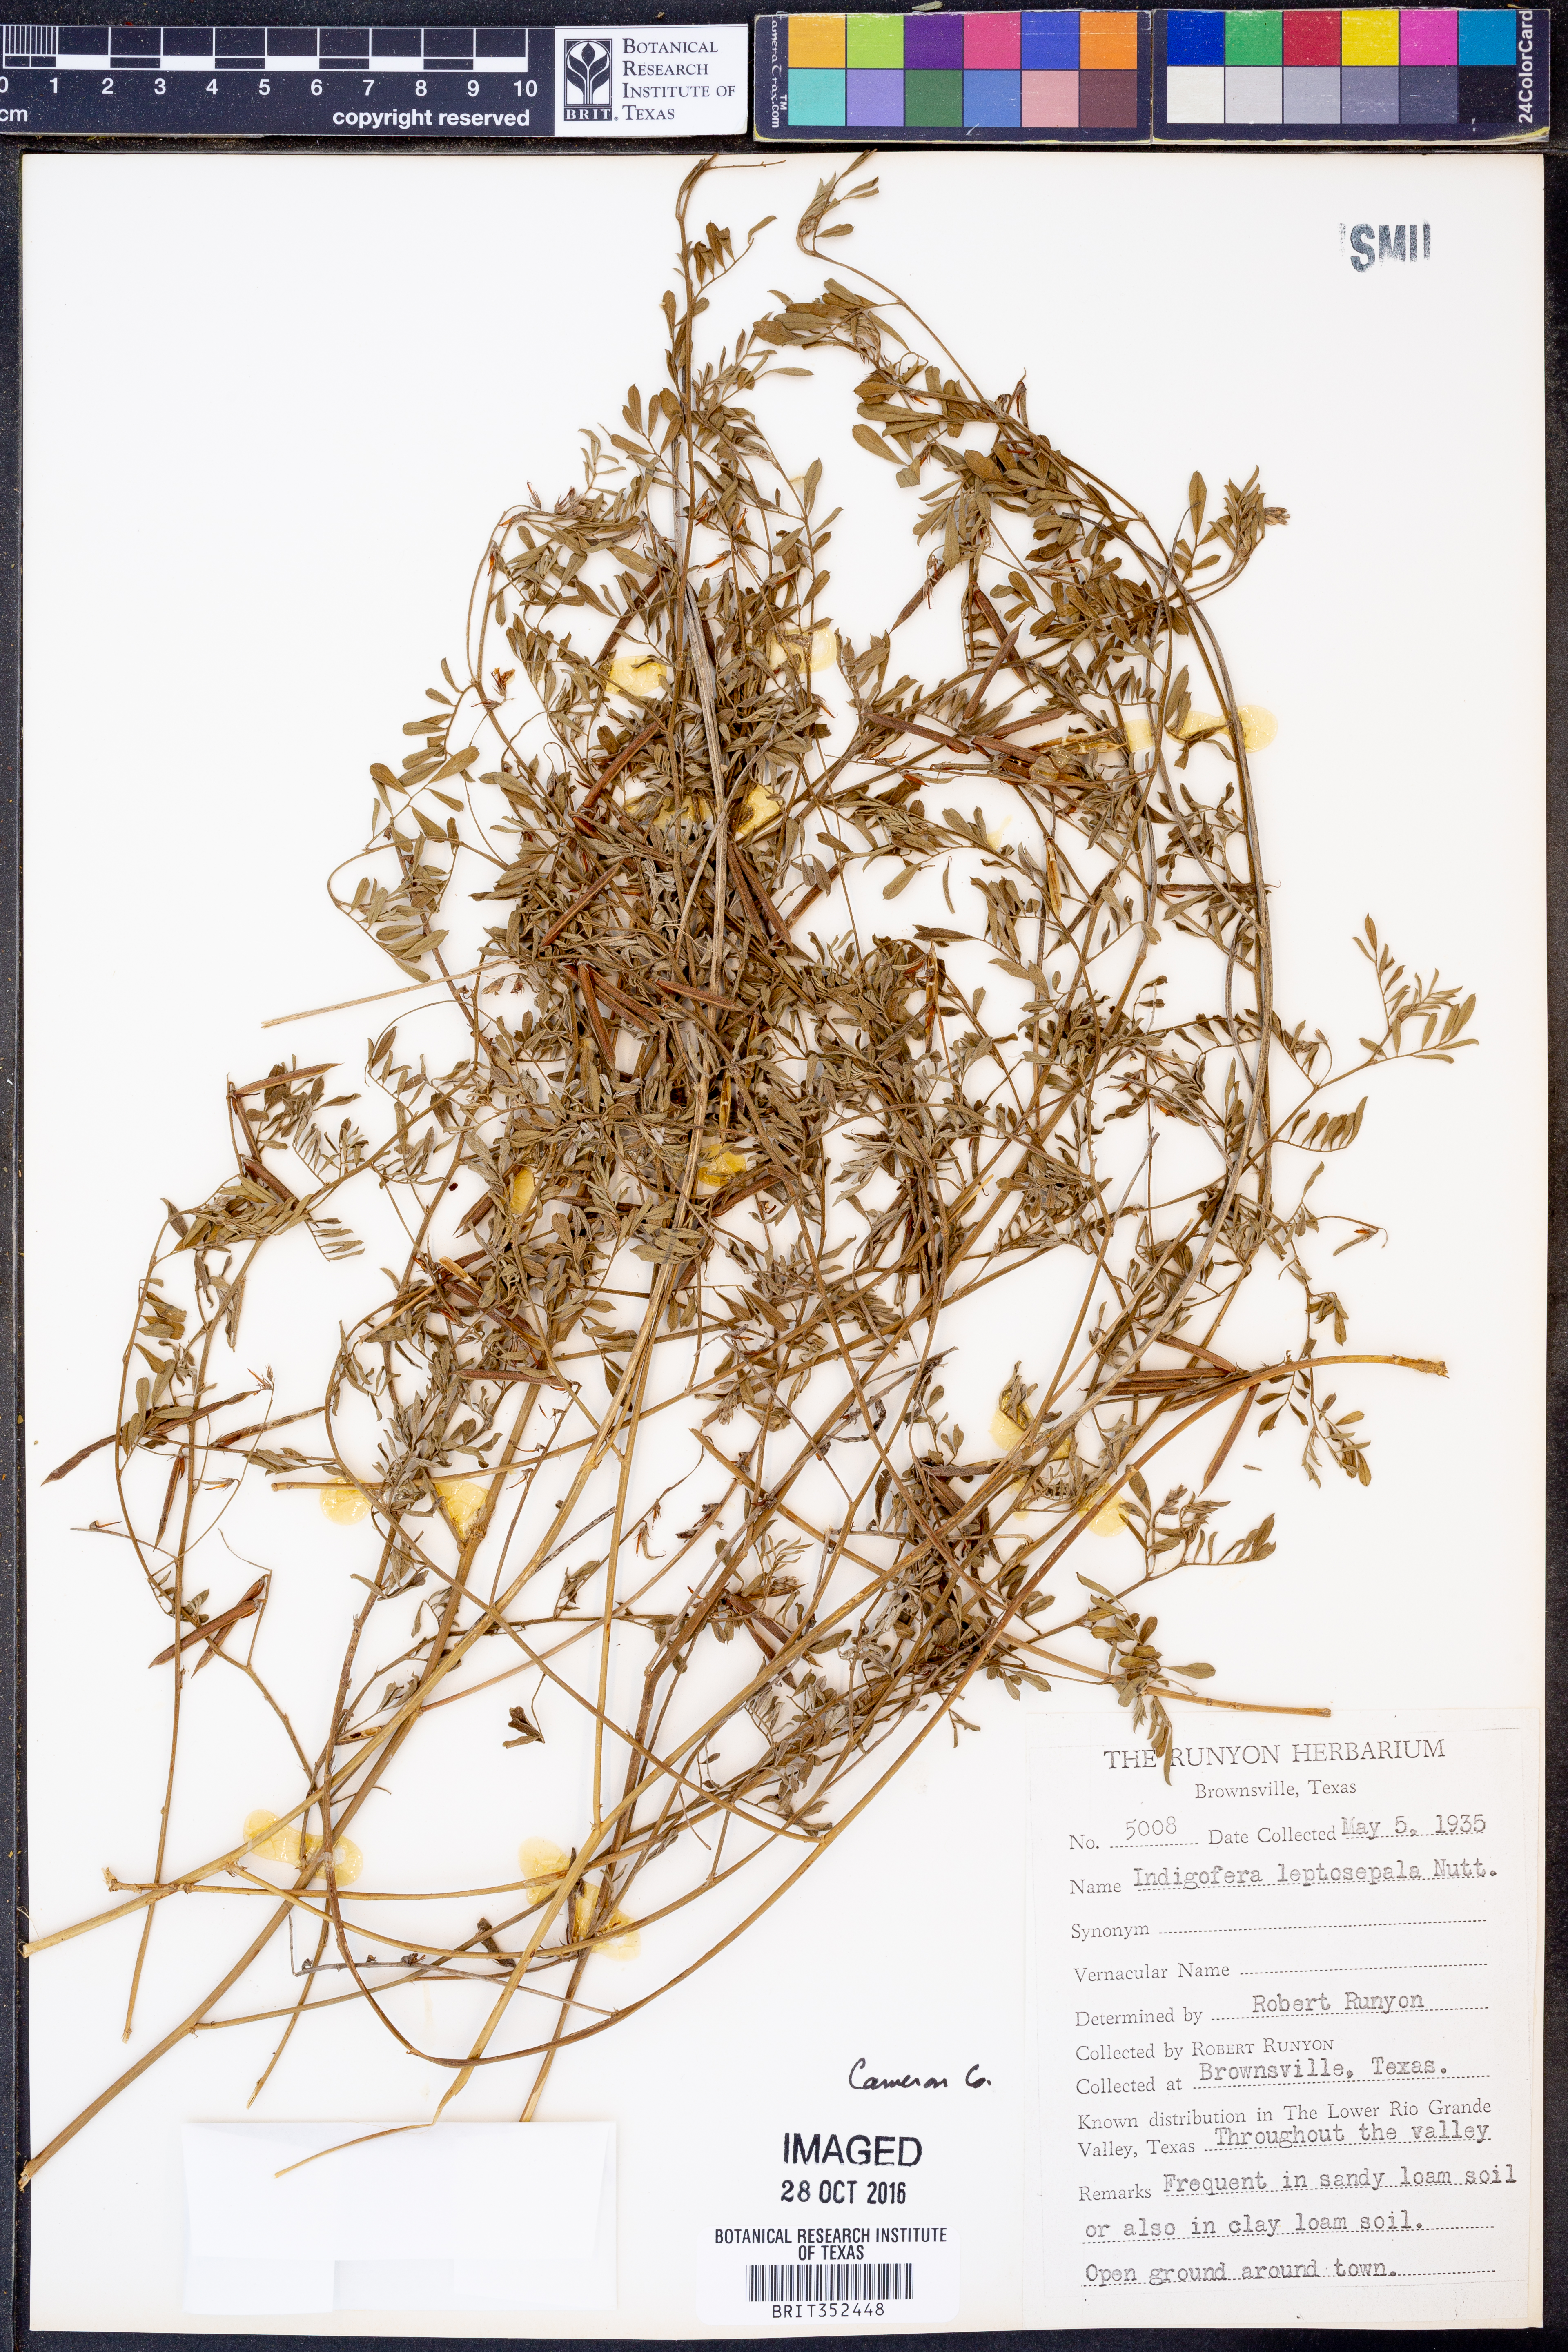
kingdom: Plantae
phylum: Tracheophyta
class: Magnoliopsida
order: Fabales
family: Fabaceae
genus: Indigofera
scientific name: Indigofera argutidens
